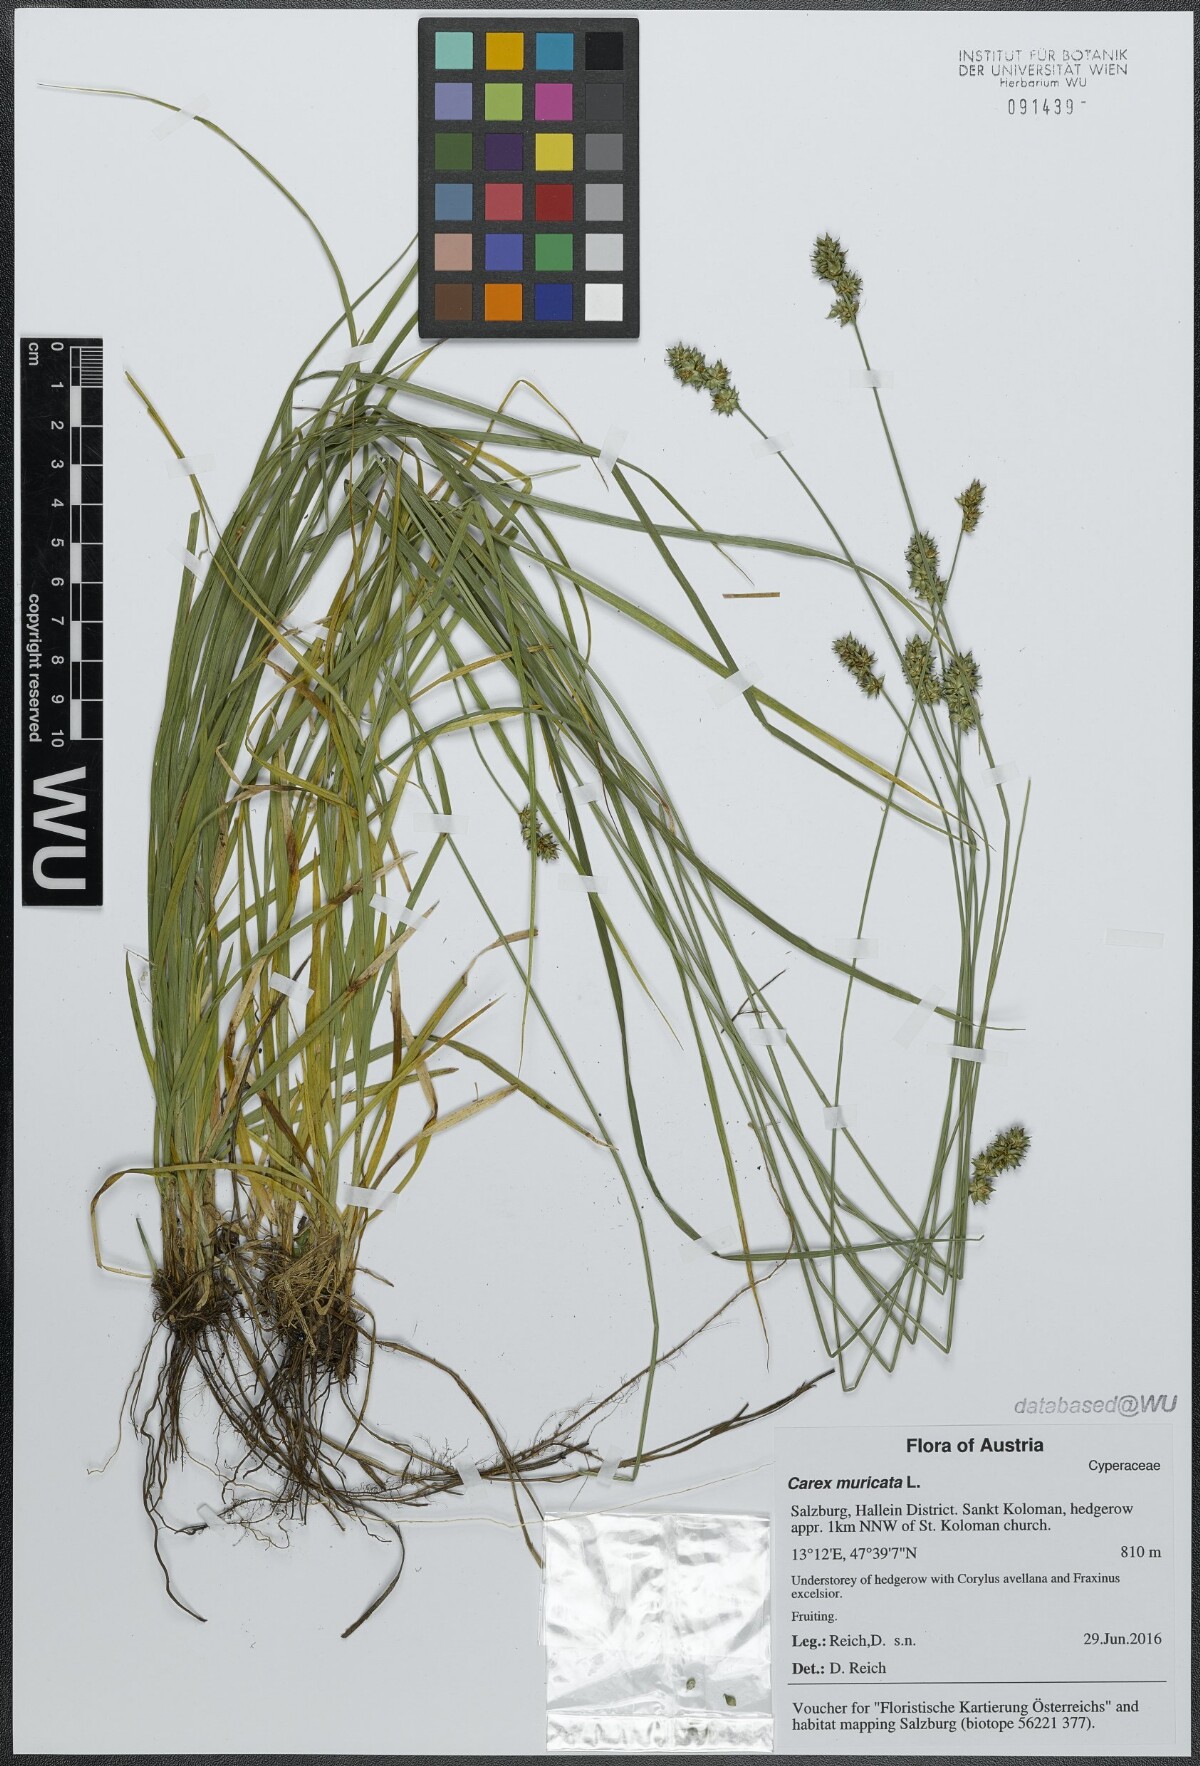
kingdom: Plantae
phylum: Tracheophyta
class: Liliopsida
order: Poales
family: Cyperaceae
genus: Carex
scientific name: Carex muricata
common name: Rough sedge
